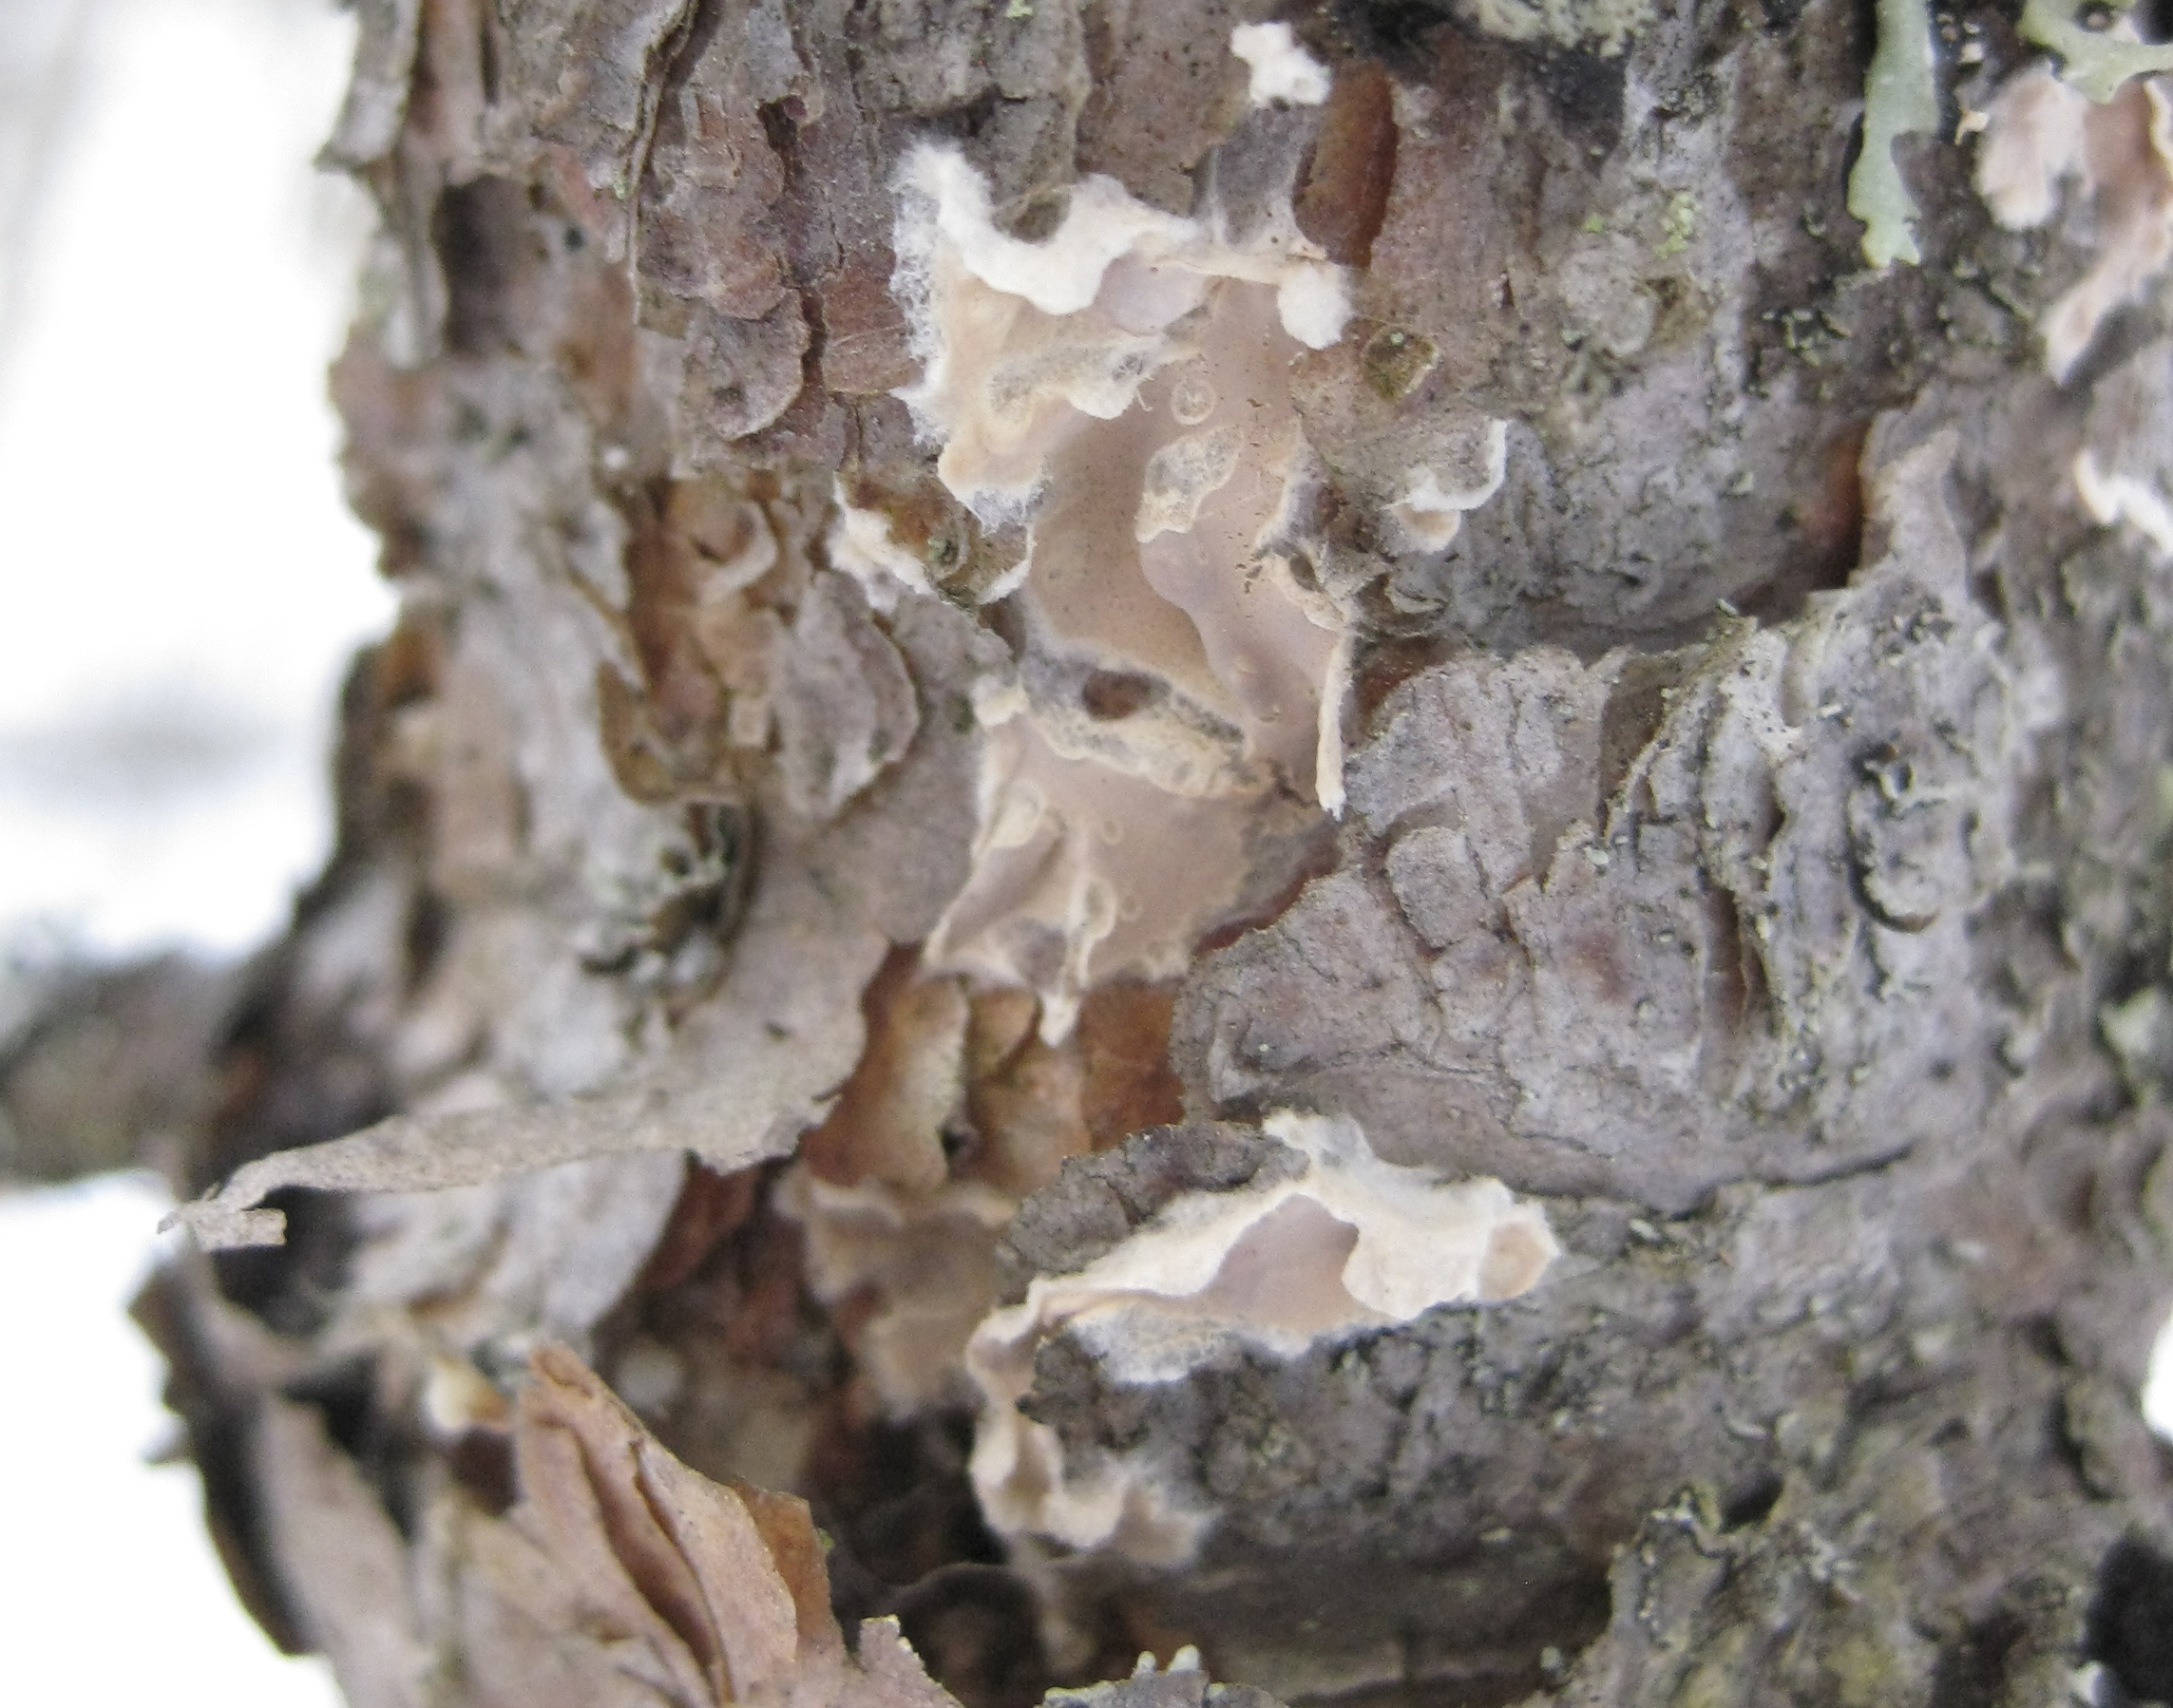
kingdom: Fungi
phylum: Basidiomycota
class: Agaricomycetes
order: Corticiales
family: Corticiaceae
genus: Corticium
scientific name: Corticium
